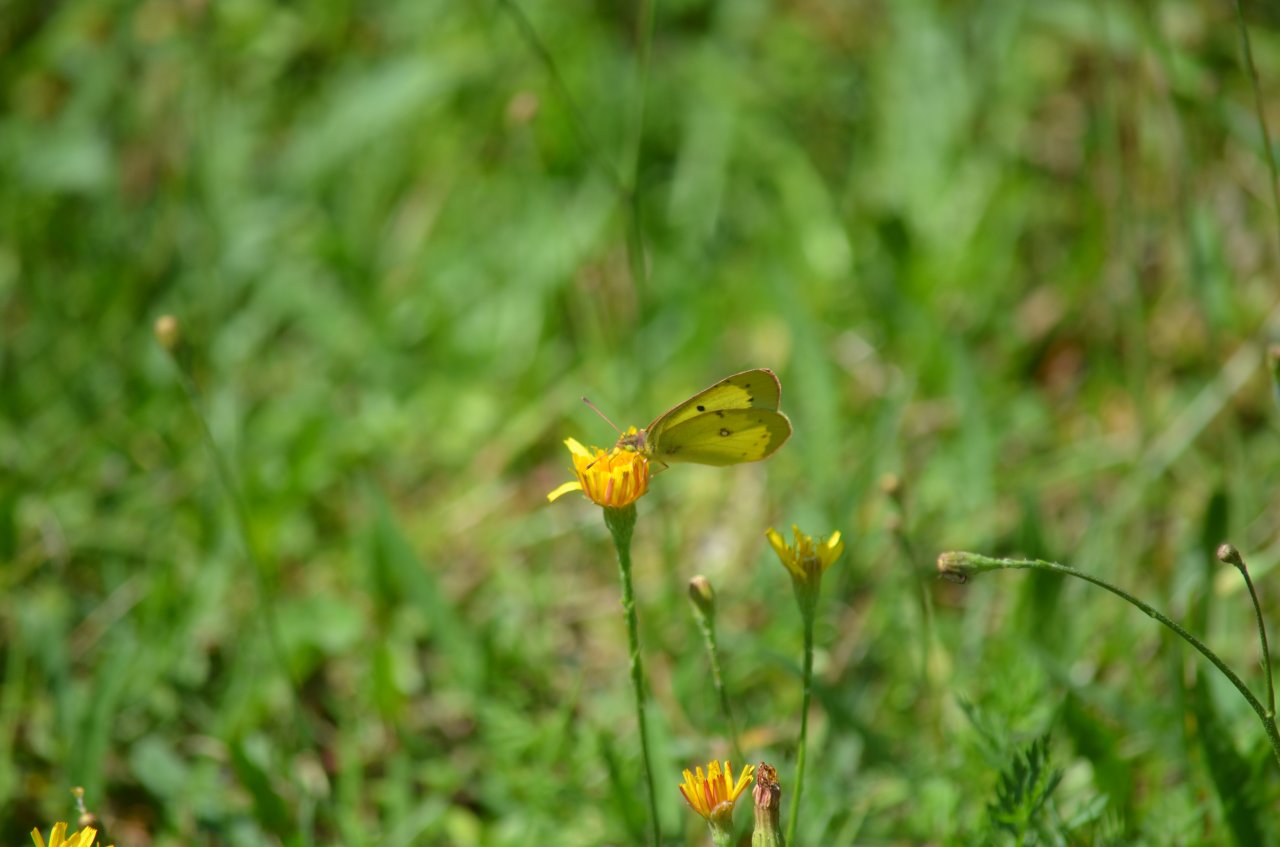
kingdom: Animalia
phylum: Arthropoda
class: Insecta
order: Lepidoptera
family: Pieridae
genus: Colias
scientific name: Colias philodice
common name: Clouded Sulphur
